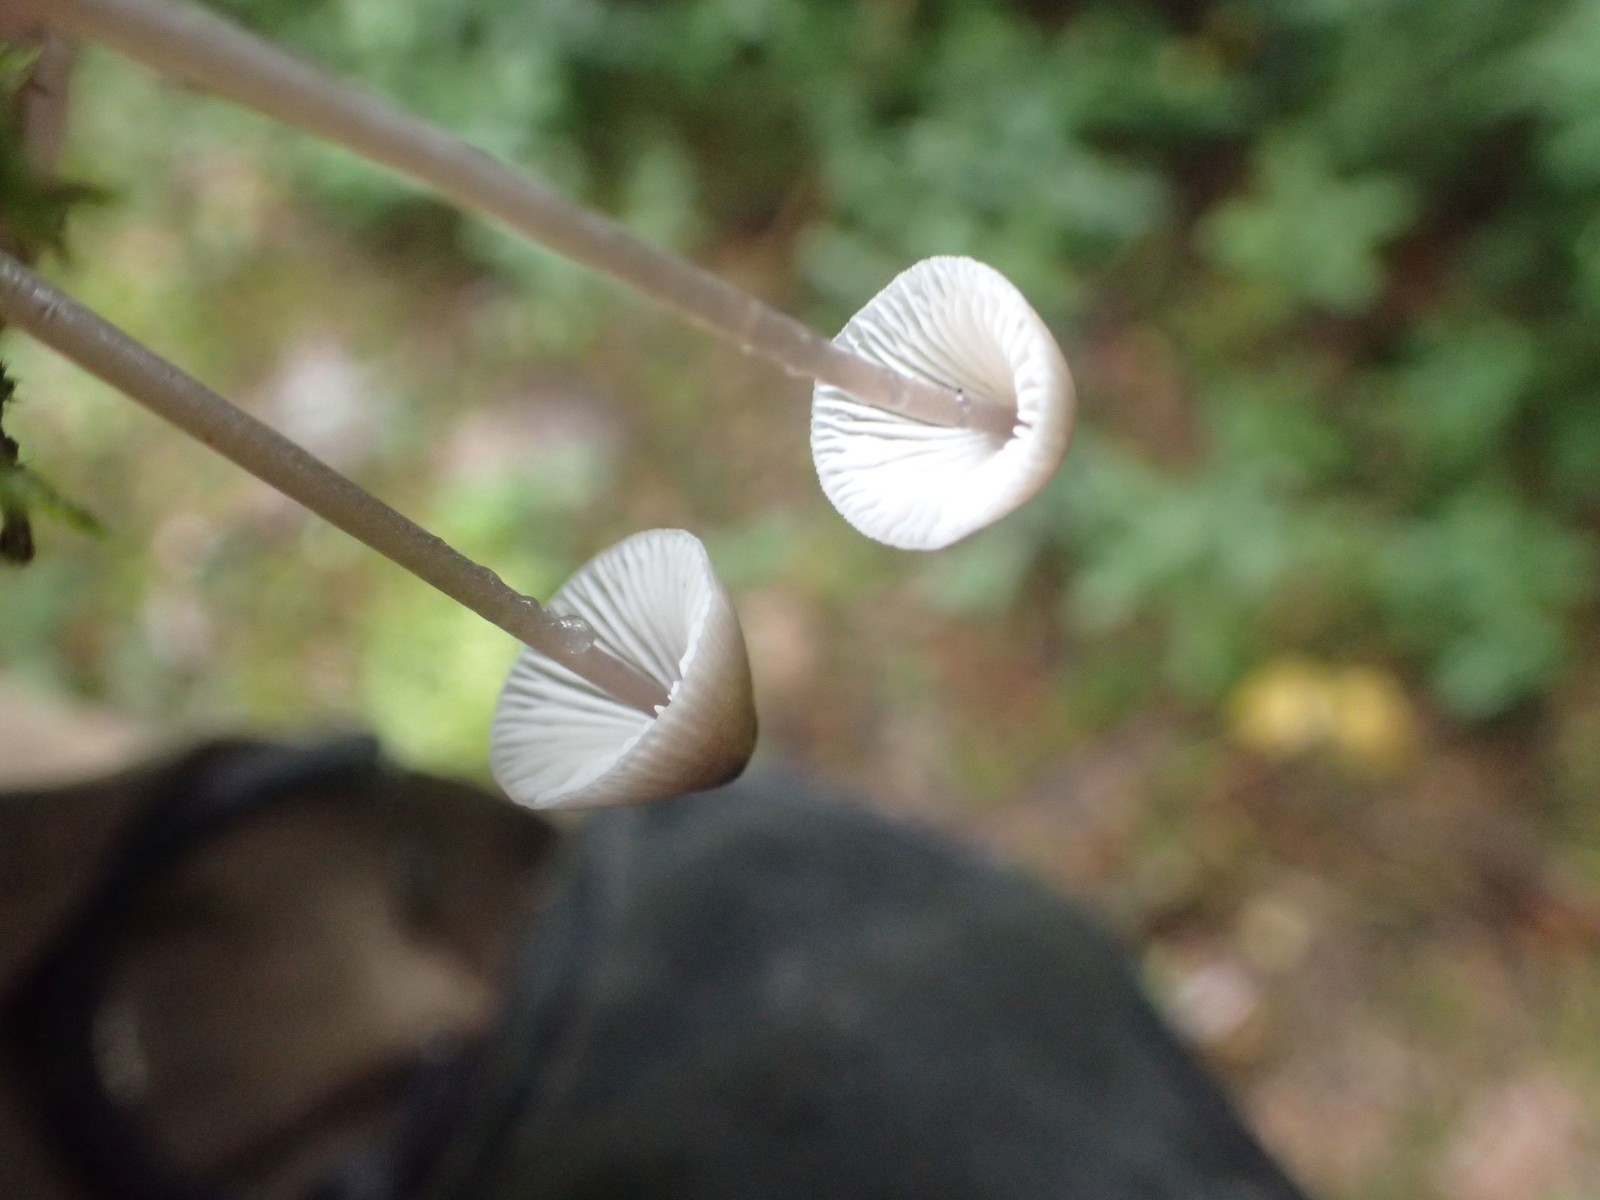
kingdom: Fungi
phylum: Basidiomycota
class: Agaricomycetes
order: Agaricales
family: Mycenaceae
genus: Mycena
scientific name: Mycena leptocephala
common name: klor-huesvamp
